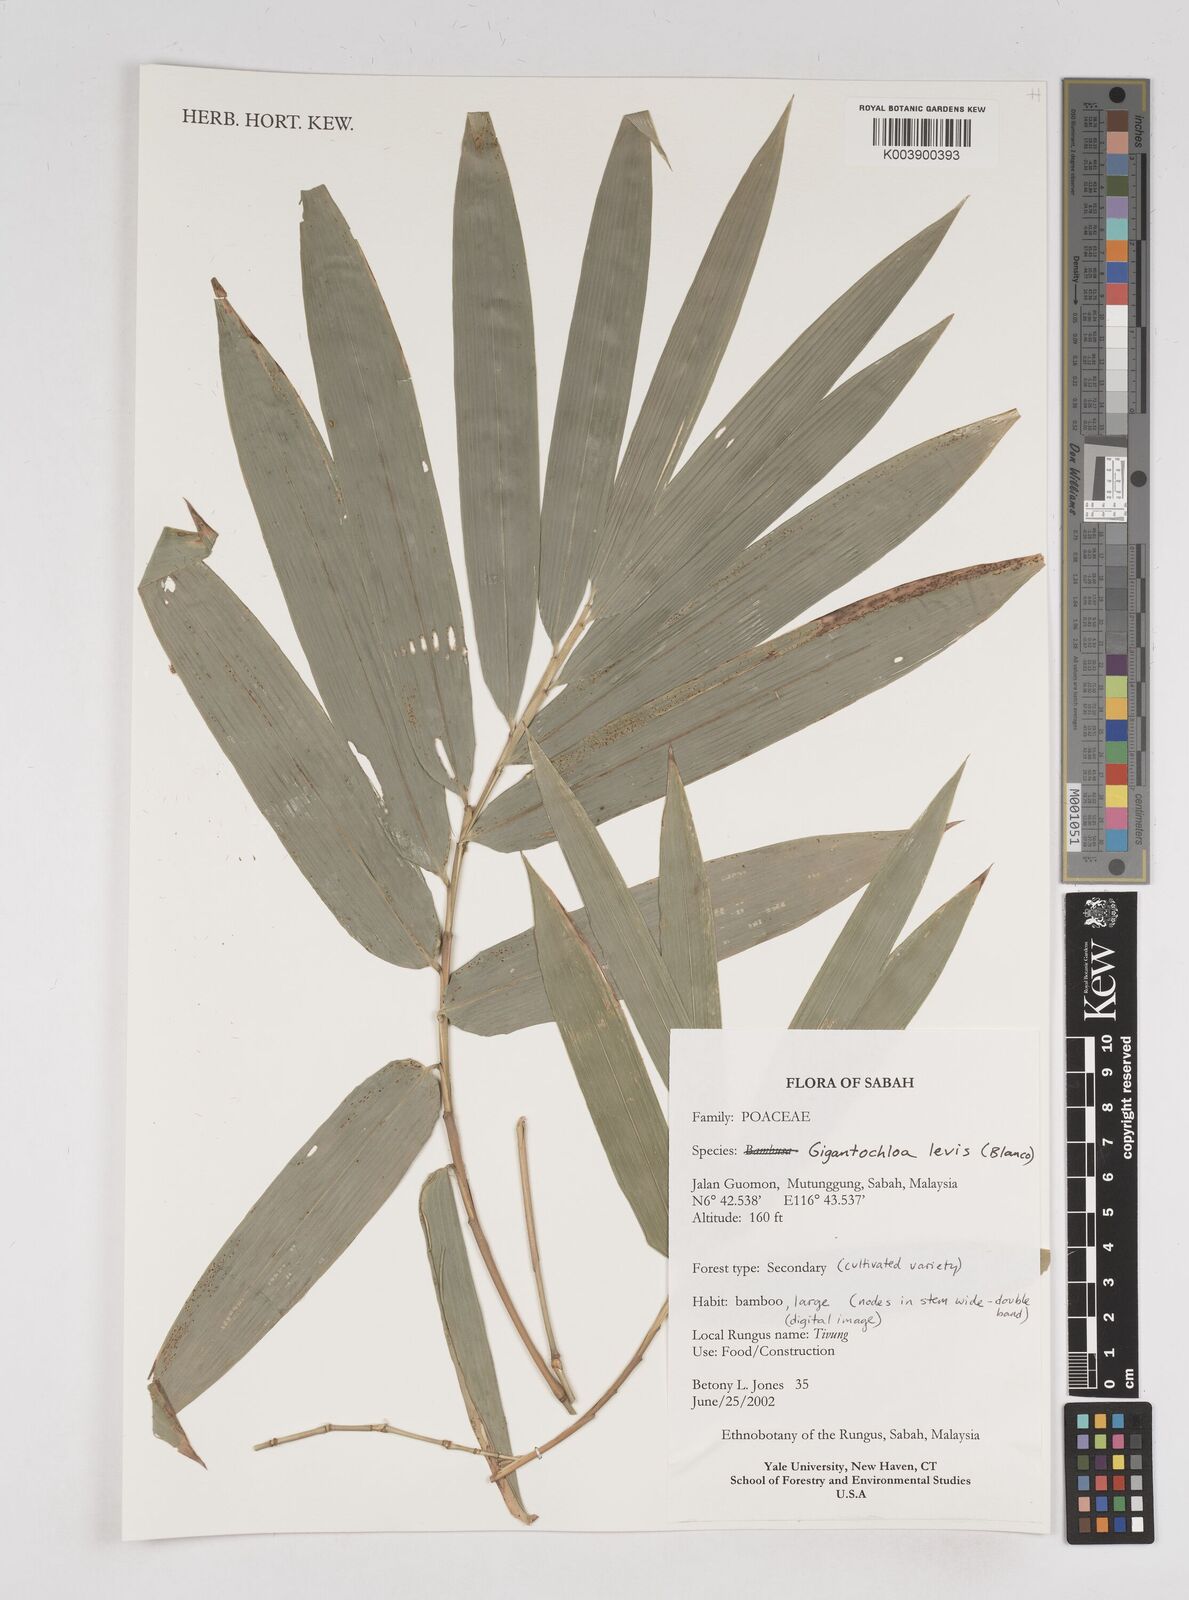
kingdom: Plantae
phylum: Tracheophyta
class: Liliopsida
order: Poales
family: Poaceae
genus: Gigantochloa
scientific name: Gigantochloa levis
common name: Smooth-shoot gigantochloa
